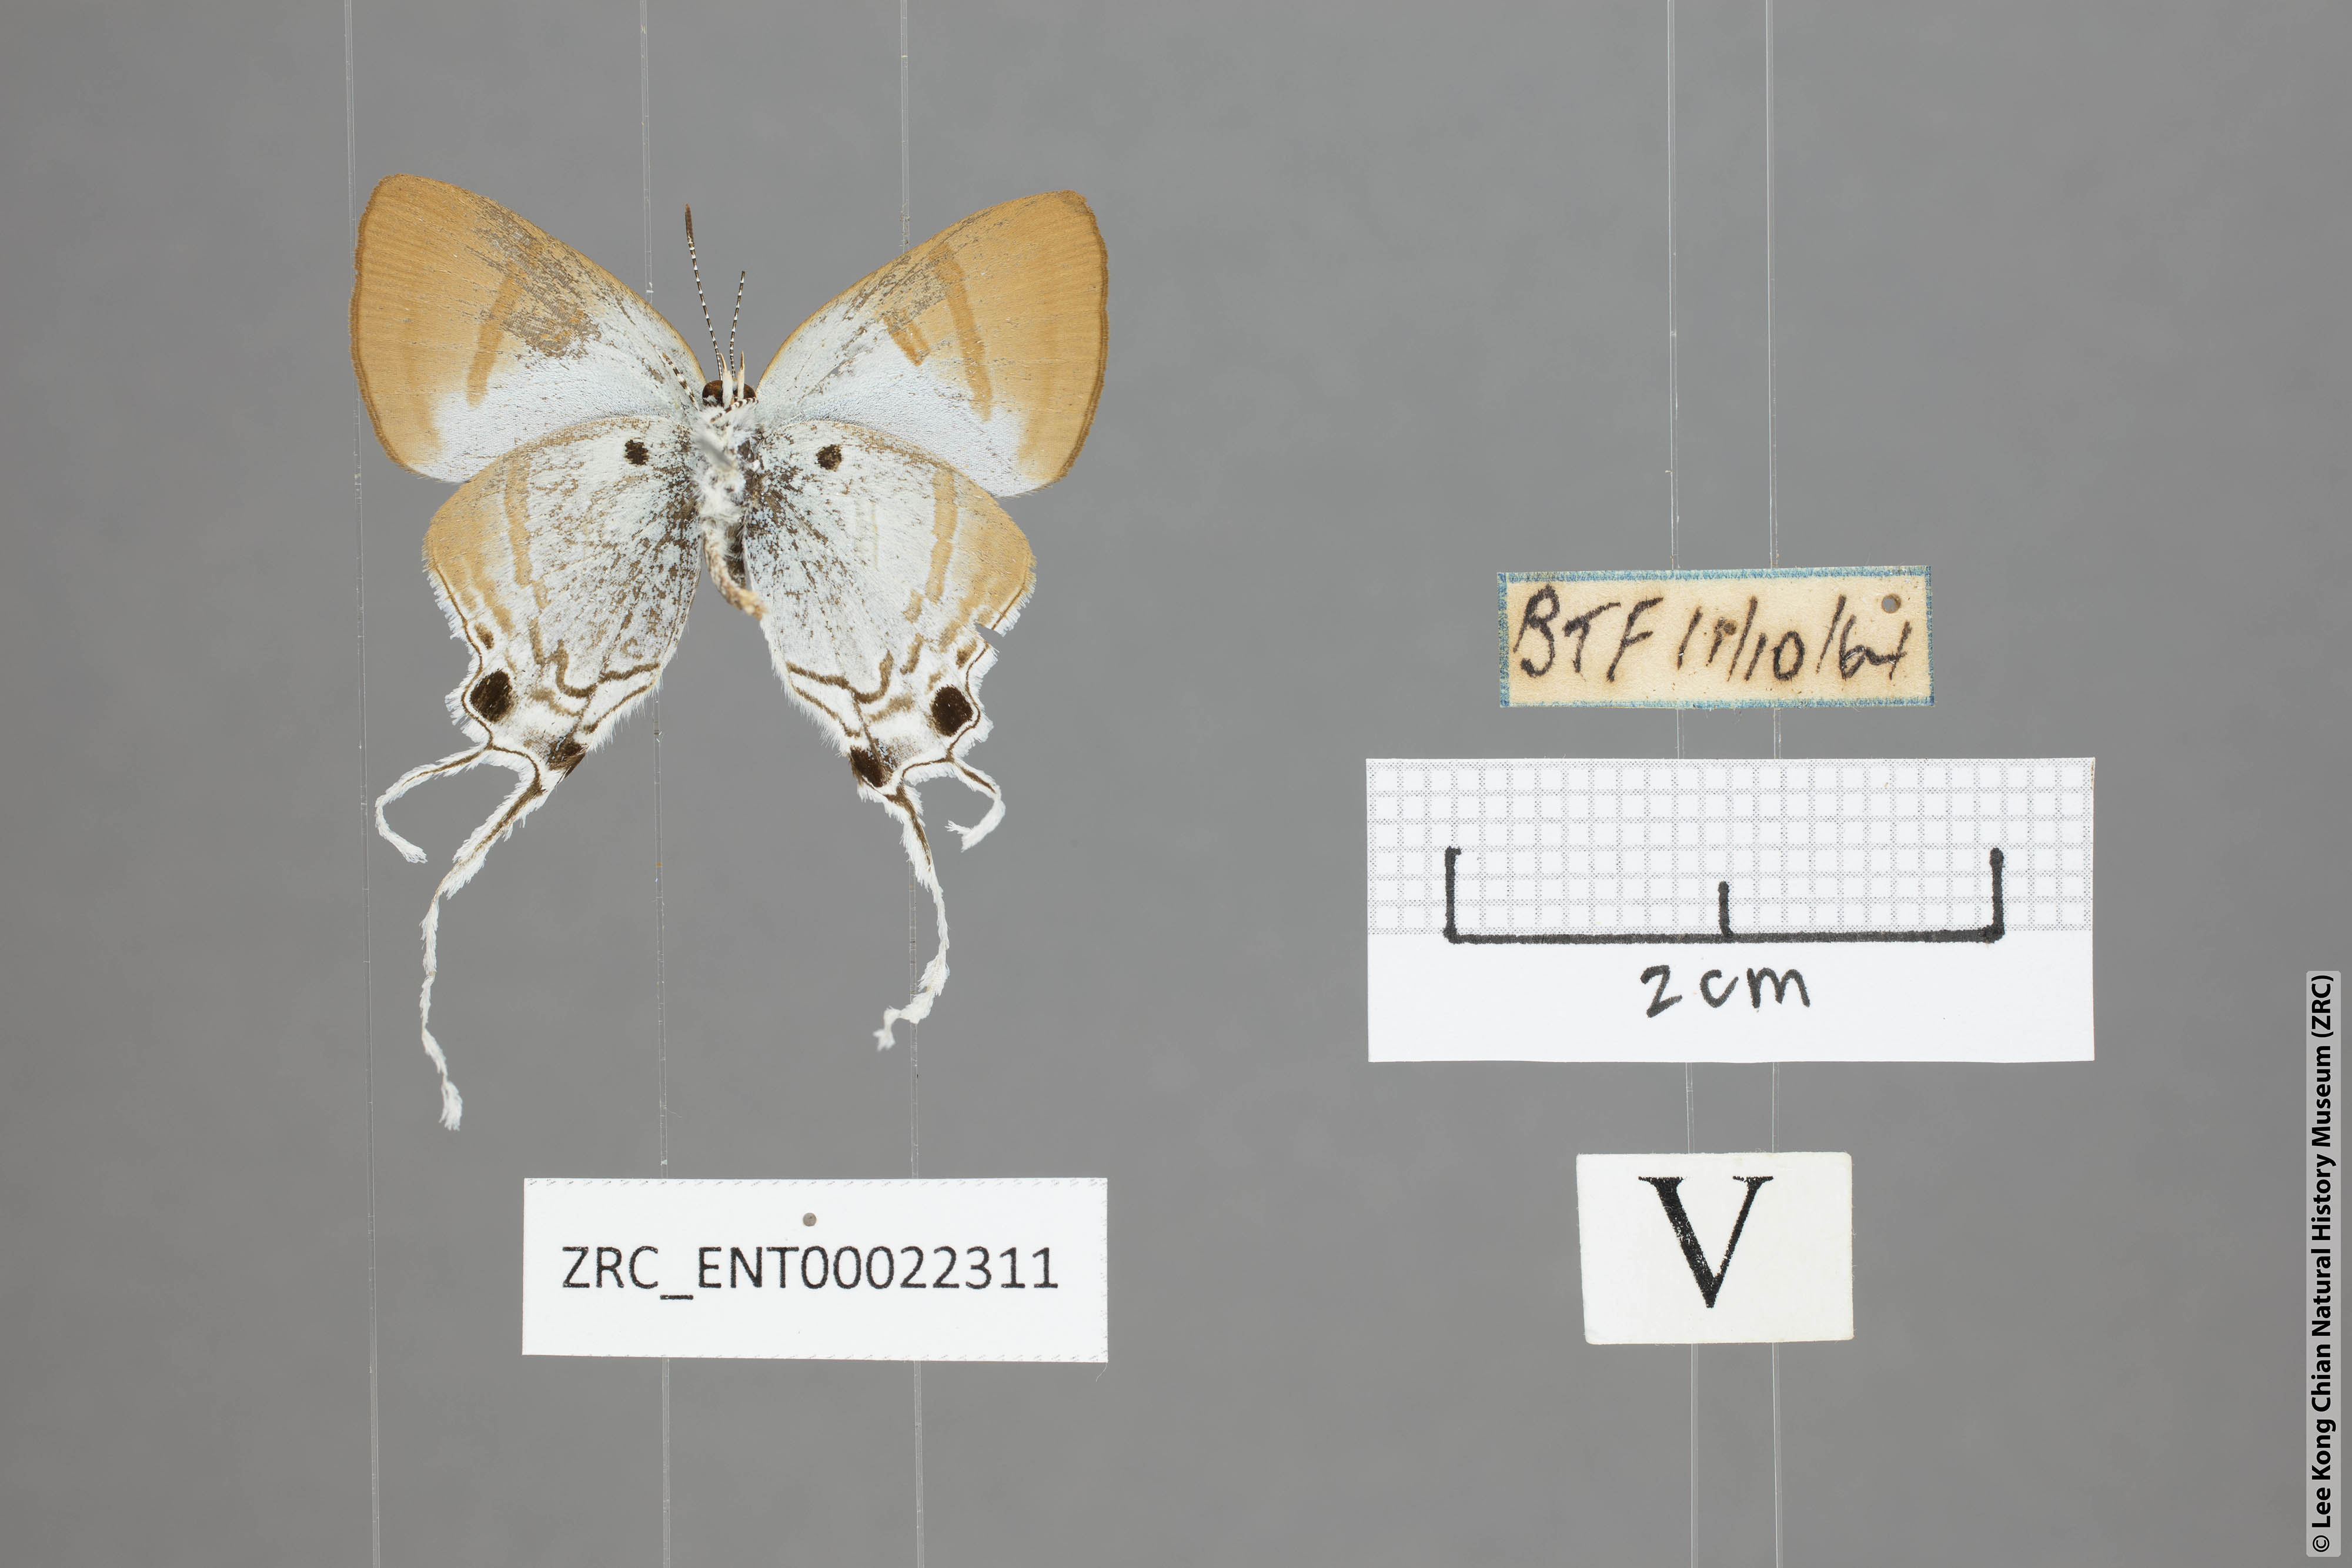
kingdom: Animalia
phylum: Arthropoda
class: Insecta
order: Lepidoptera
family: Lycaenidae
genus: Zeltus
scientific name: Zeltus amasa
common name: Fluffy tit
